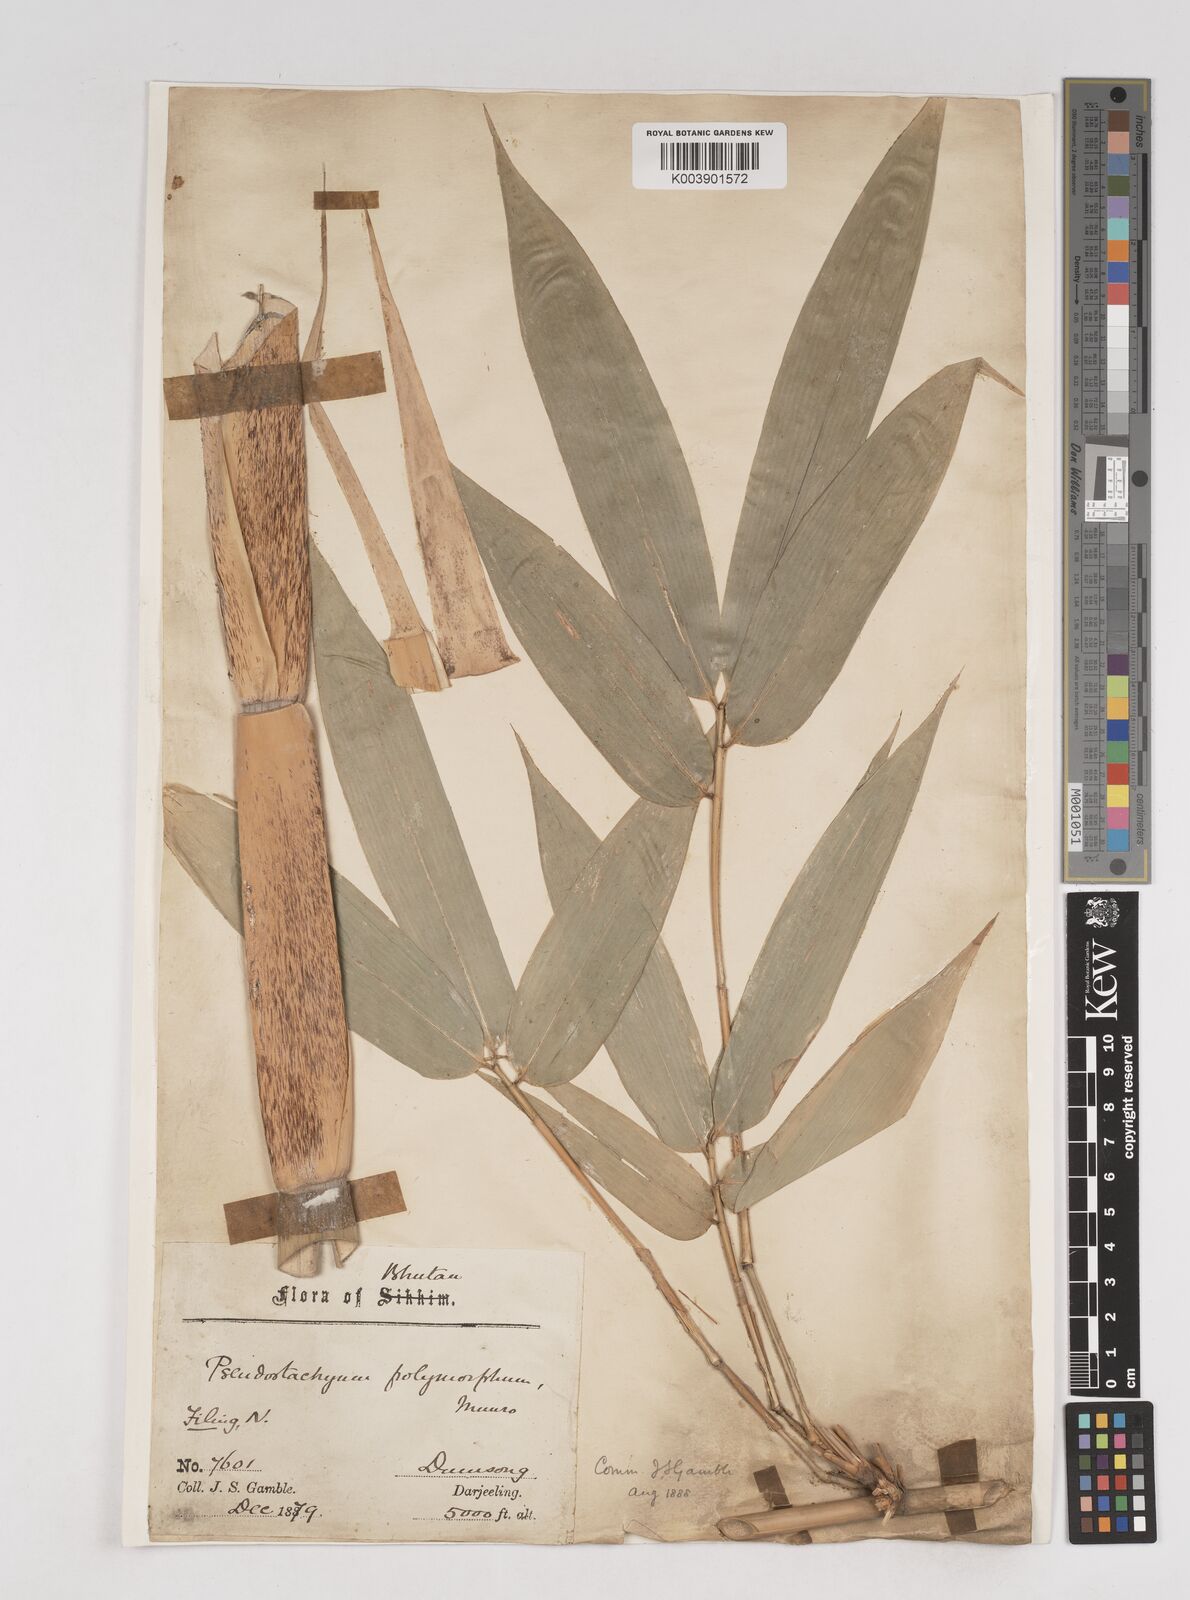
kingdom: Plantae
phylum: Tracheophyta
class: Liliopsida
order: Poales
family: Poaceae
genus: Pseudostachyum
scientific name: Pseudostachyum polymorphum
